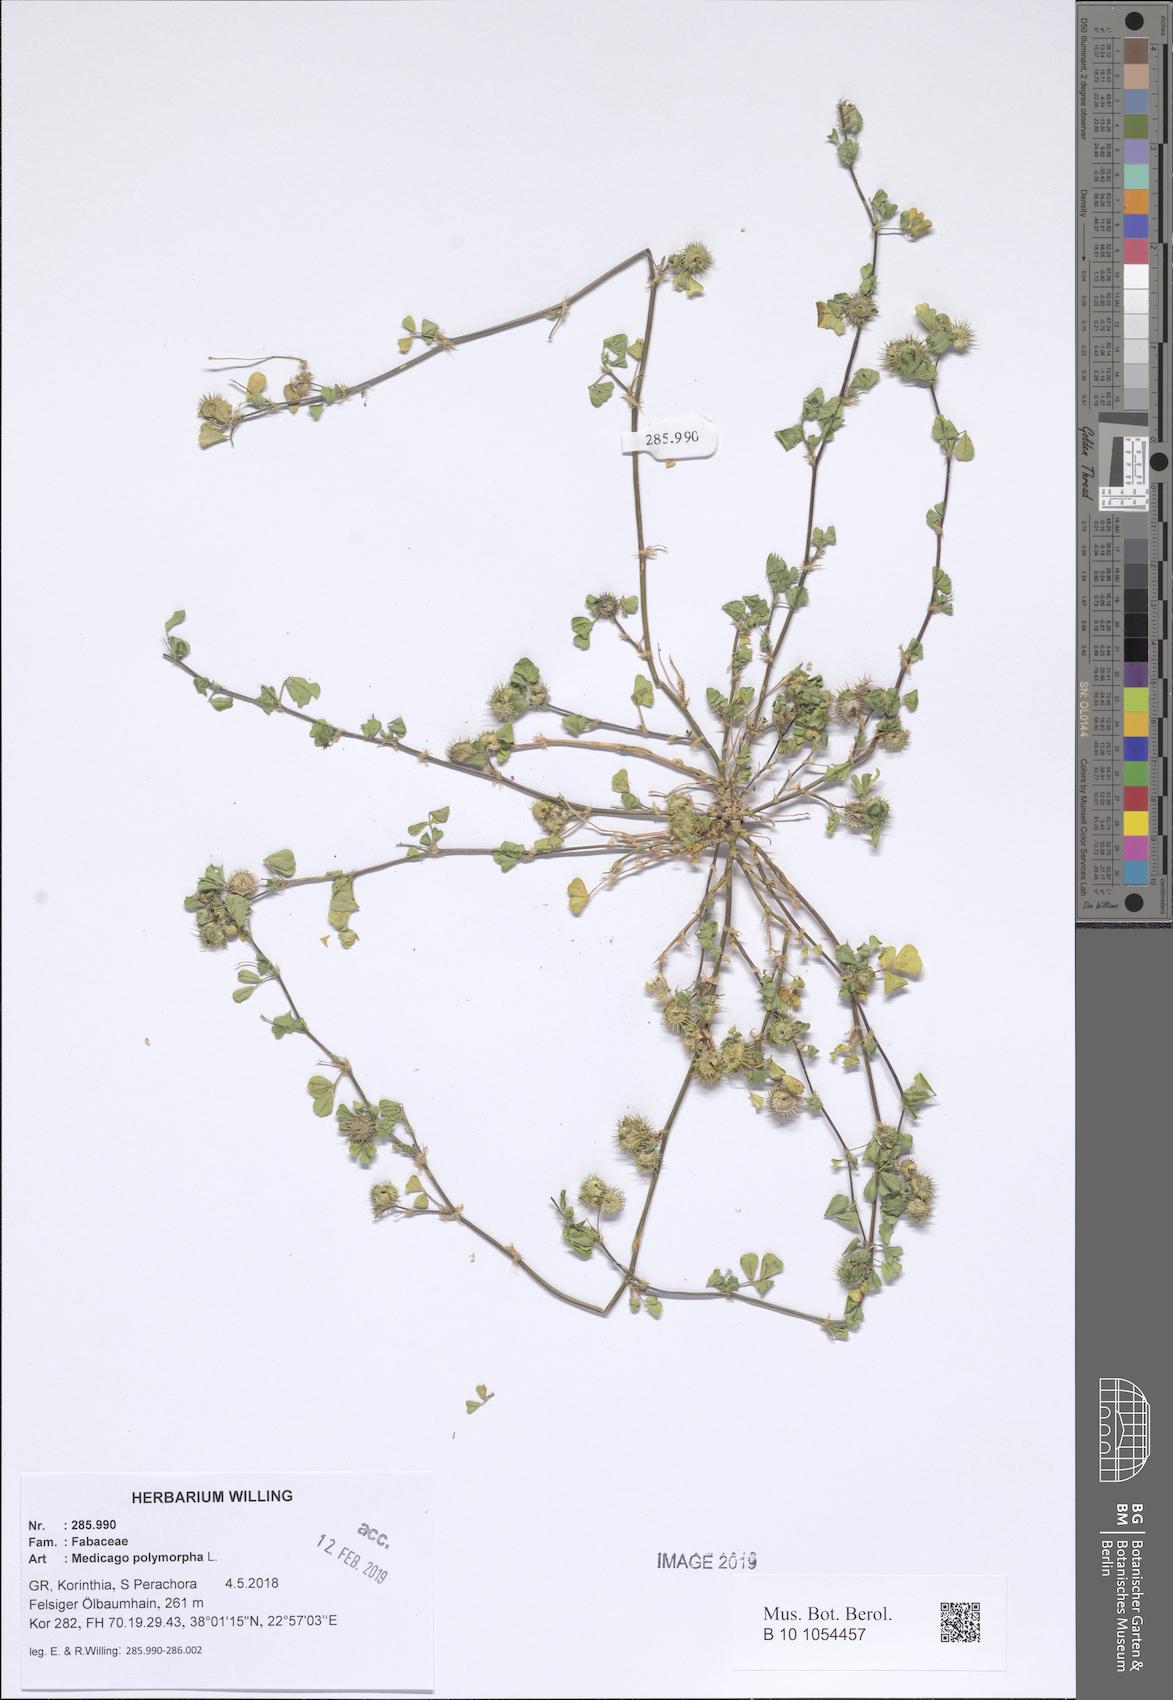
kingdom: Plantae
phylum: Tracheophyta
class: Magnoliopsida
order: Fabales
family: Fabaceae
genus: Medicago
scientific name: Medicago polymorpha
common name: Burclover
